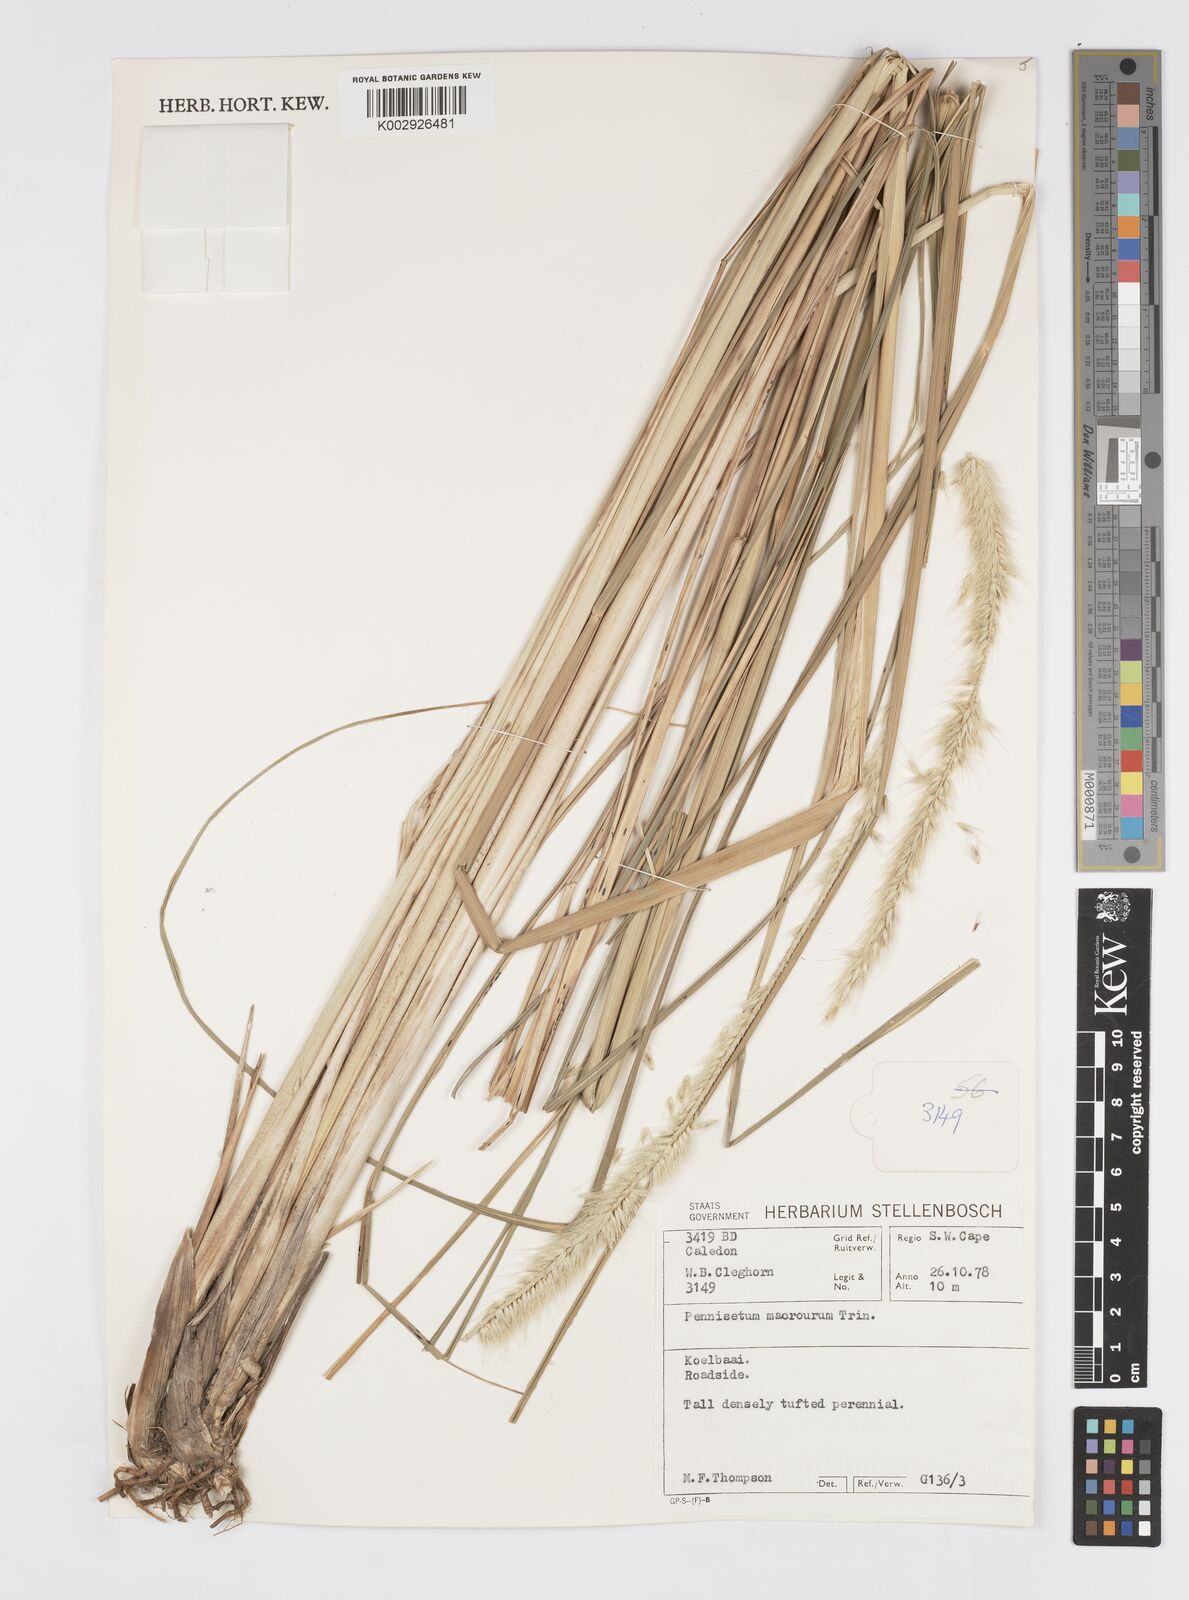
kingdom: Plantae
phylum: Tracheophyta
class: Liliopsida
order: Poales
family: Poaceae
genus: Cenchrus
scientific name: Cenchrus caudatus
